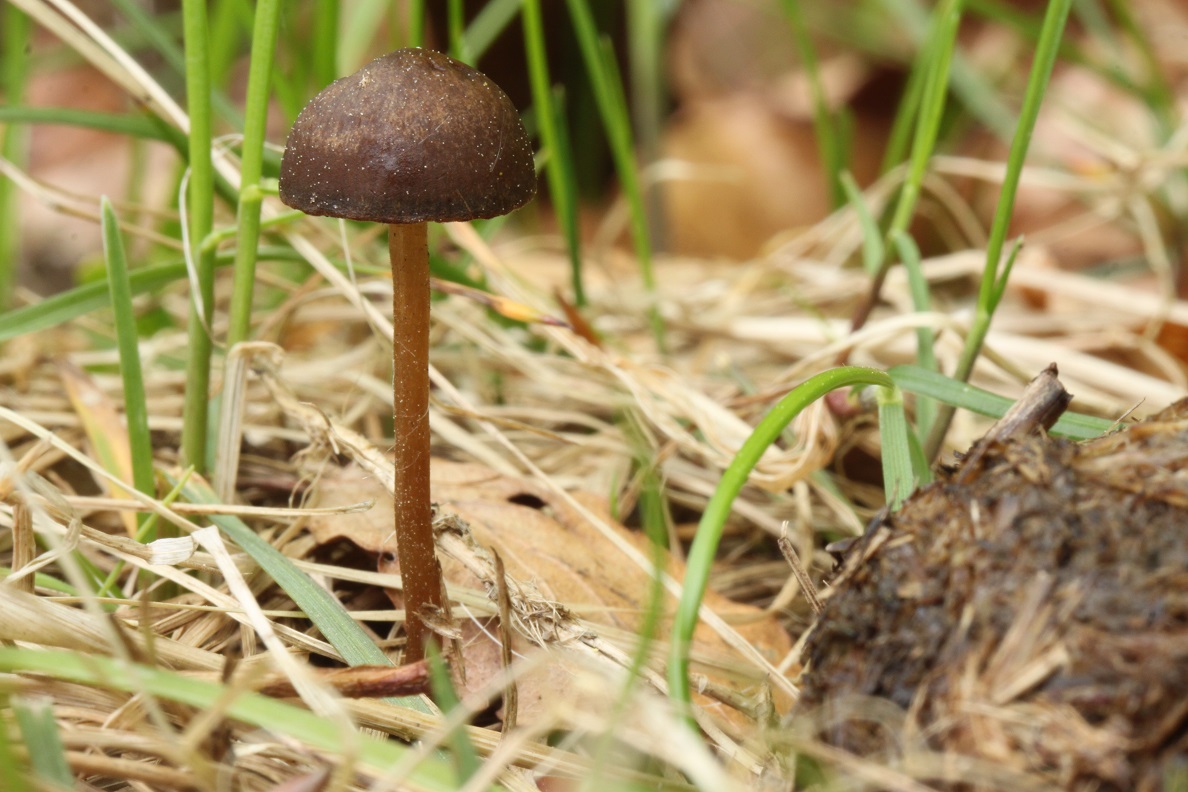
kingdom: Fungi
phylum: Basidiomycota
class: Agaricomycetes
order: Agaricales
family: Bolbitiaceae
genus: Panaeolus
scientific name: Panaeolus fimicola
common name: tidlig glanshat
